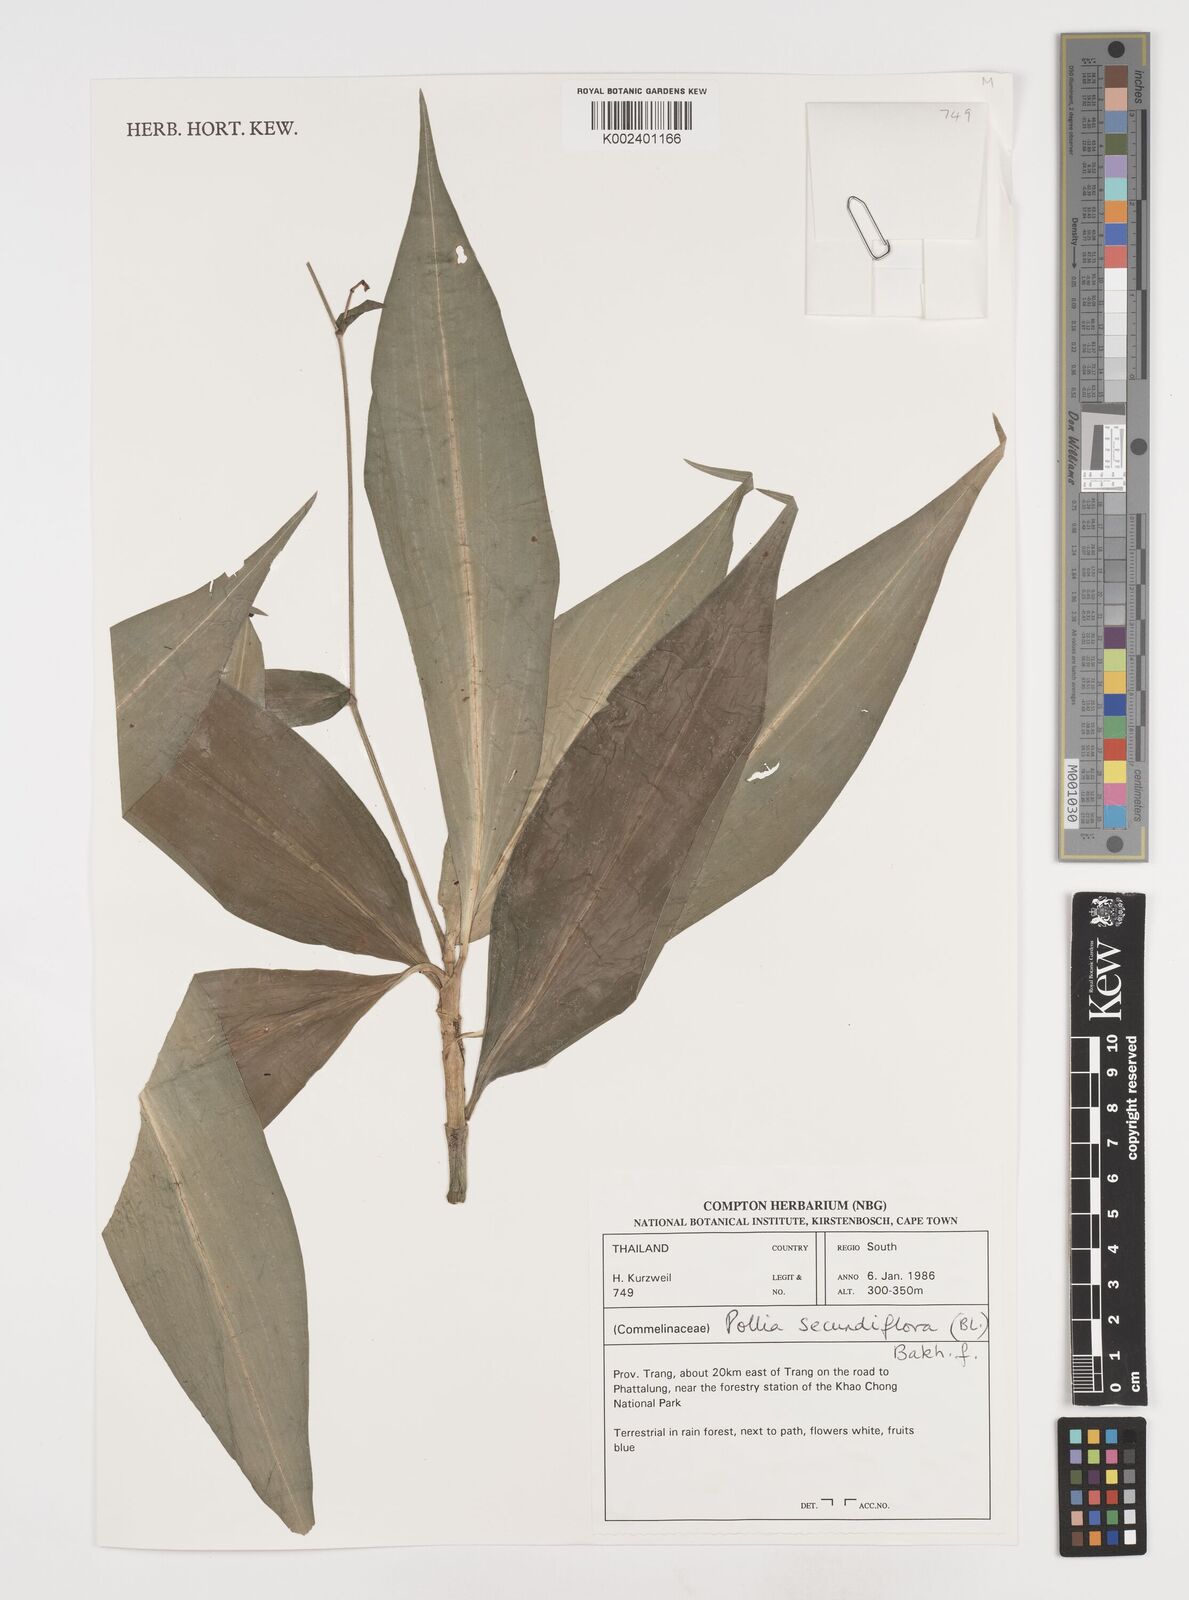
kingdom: Plantae
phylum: Tracheophyta
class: Liliopsida
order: Commelinales
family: Commelinaceae
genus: Pollia
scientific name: Pollia secundiflora
